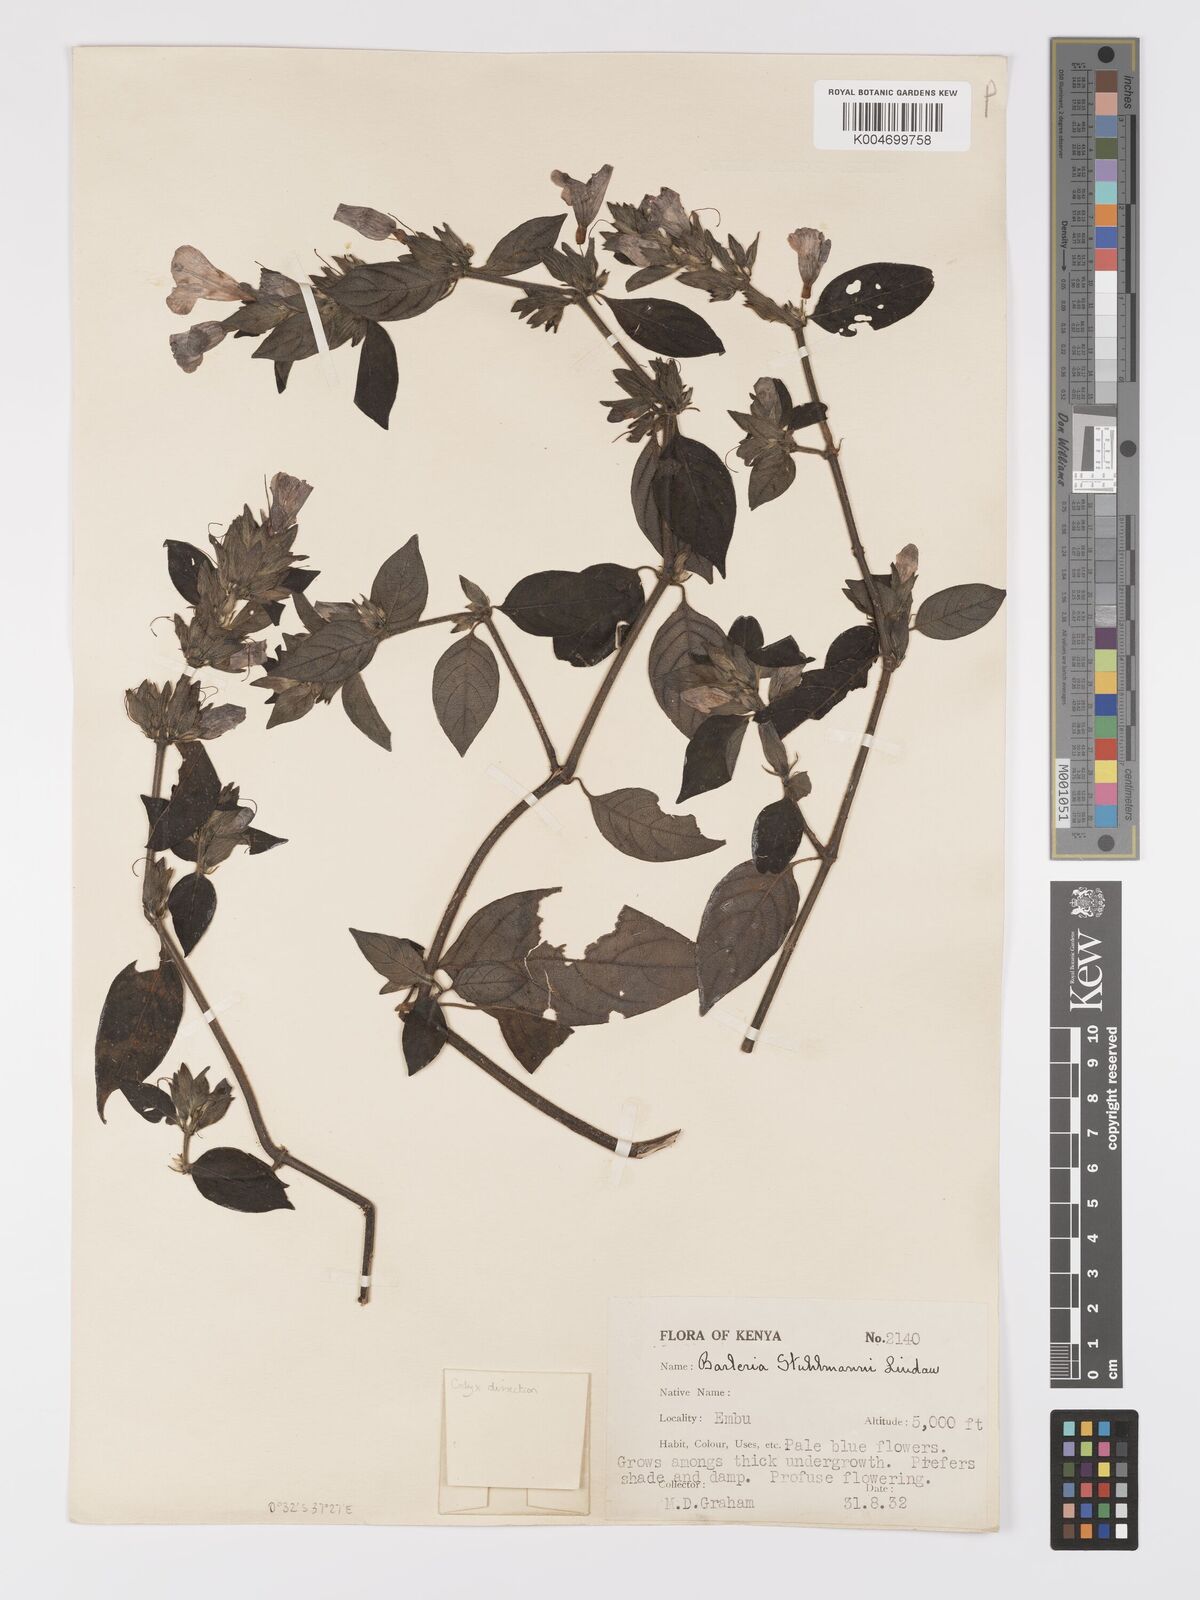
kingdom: Plantae
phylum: Tracheophyta
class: Magnoliopsida
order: Lamiales
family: Acanthaceae
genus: Barleria
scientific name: Barleria ventricosa
